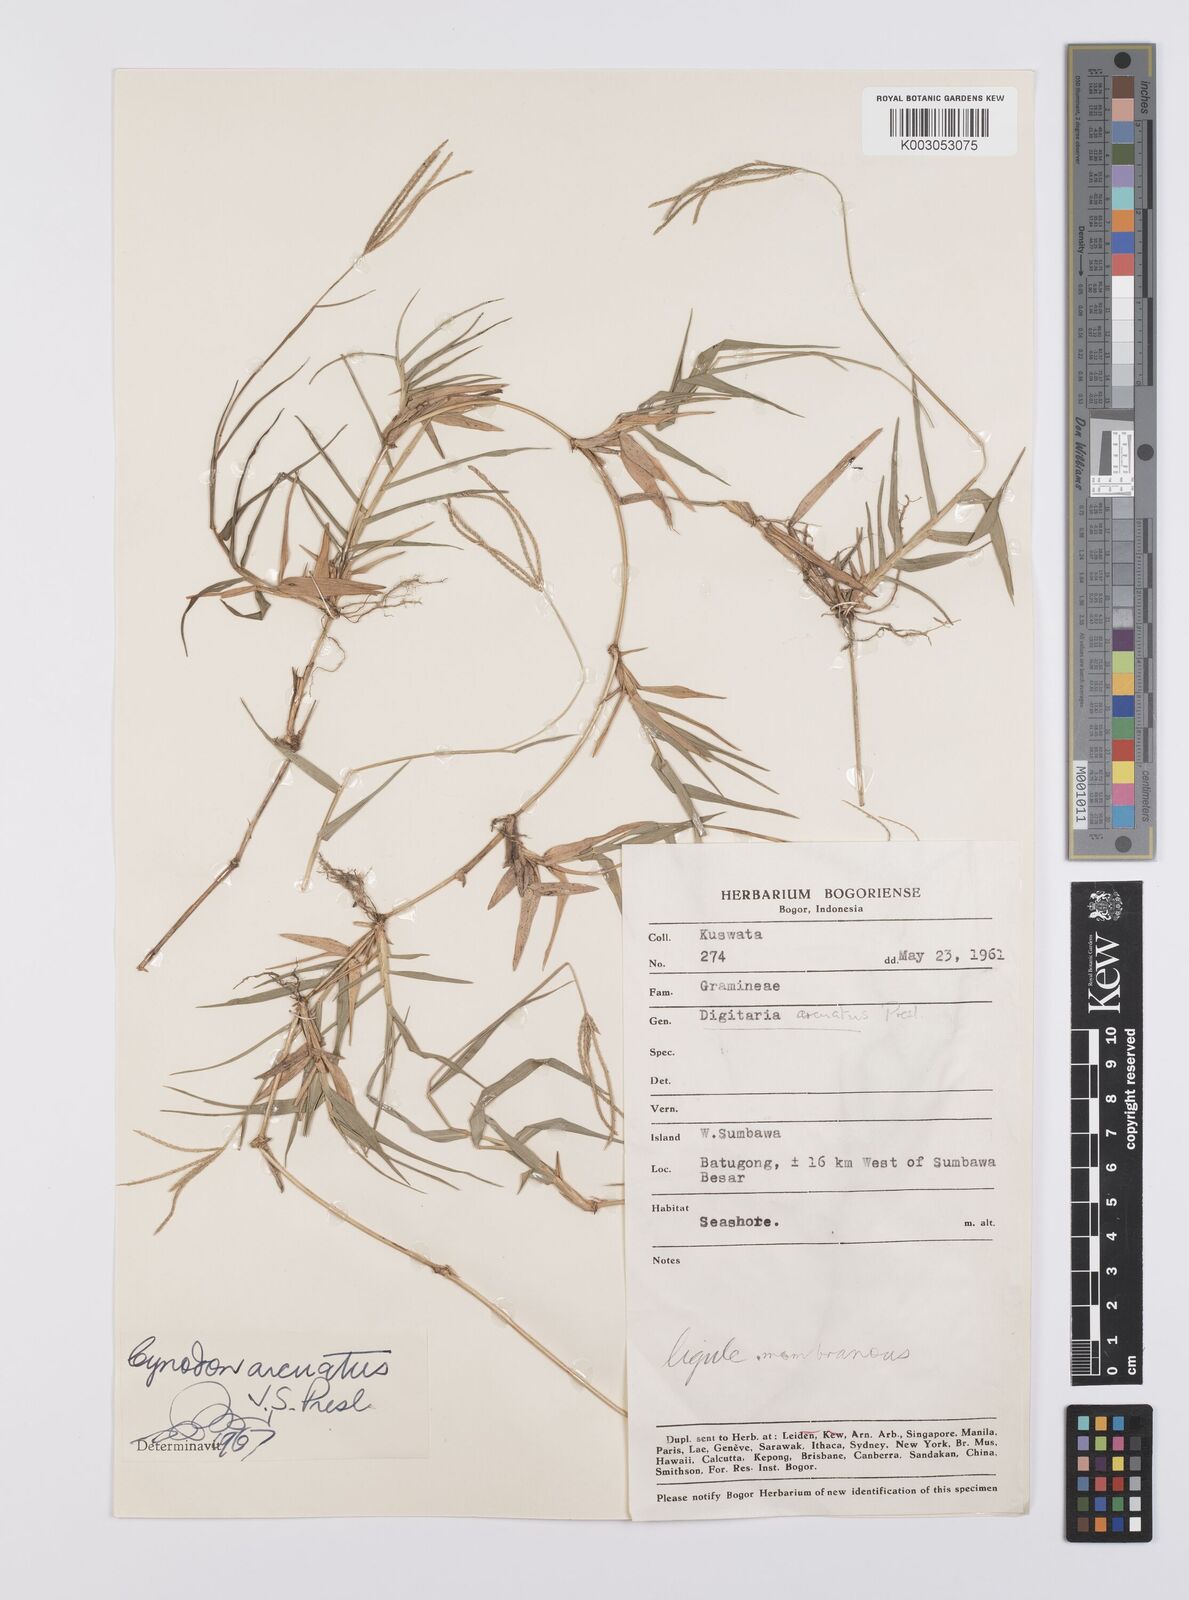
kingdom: Plantae
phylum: Tracheophyta
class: Liliopsida
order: Poales
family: Poaceae
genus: Cynodon
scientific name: Cynodon dactylon
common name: Bermuda grass
